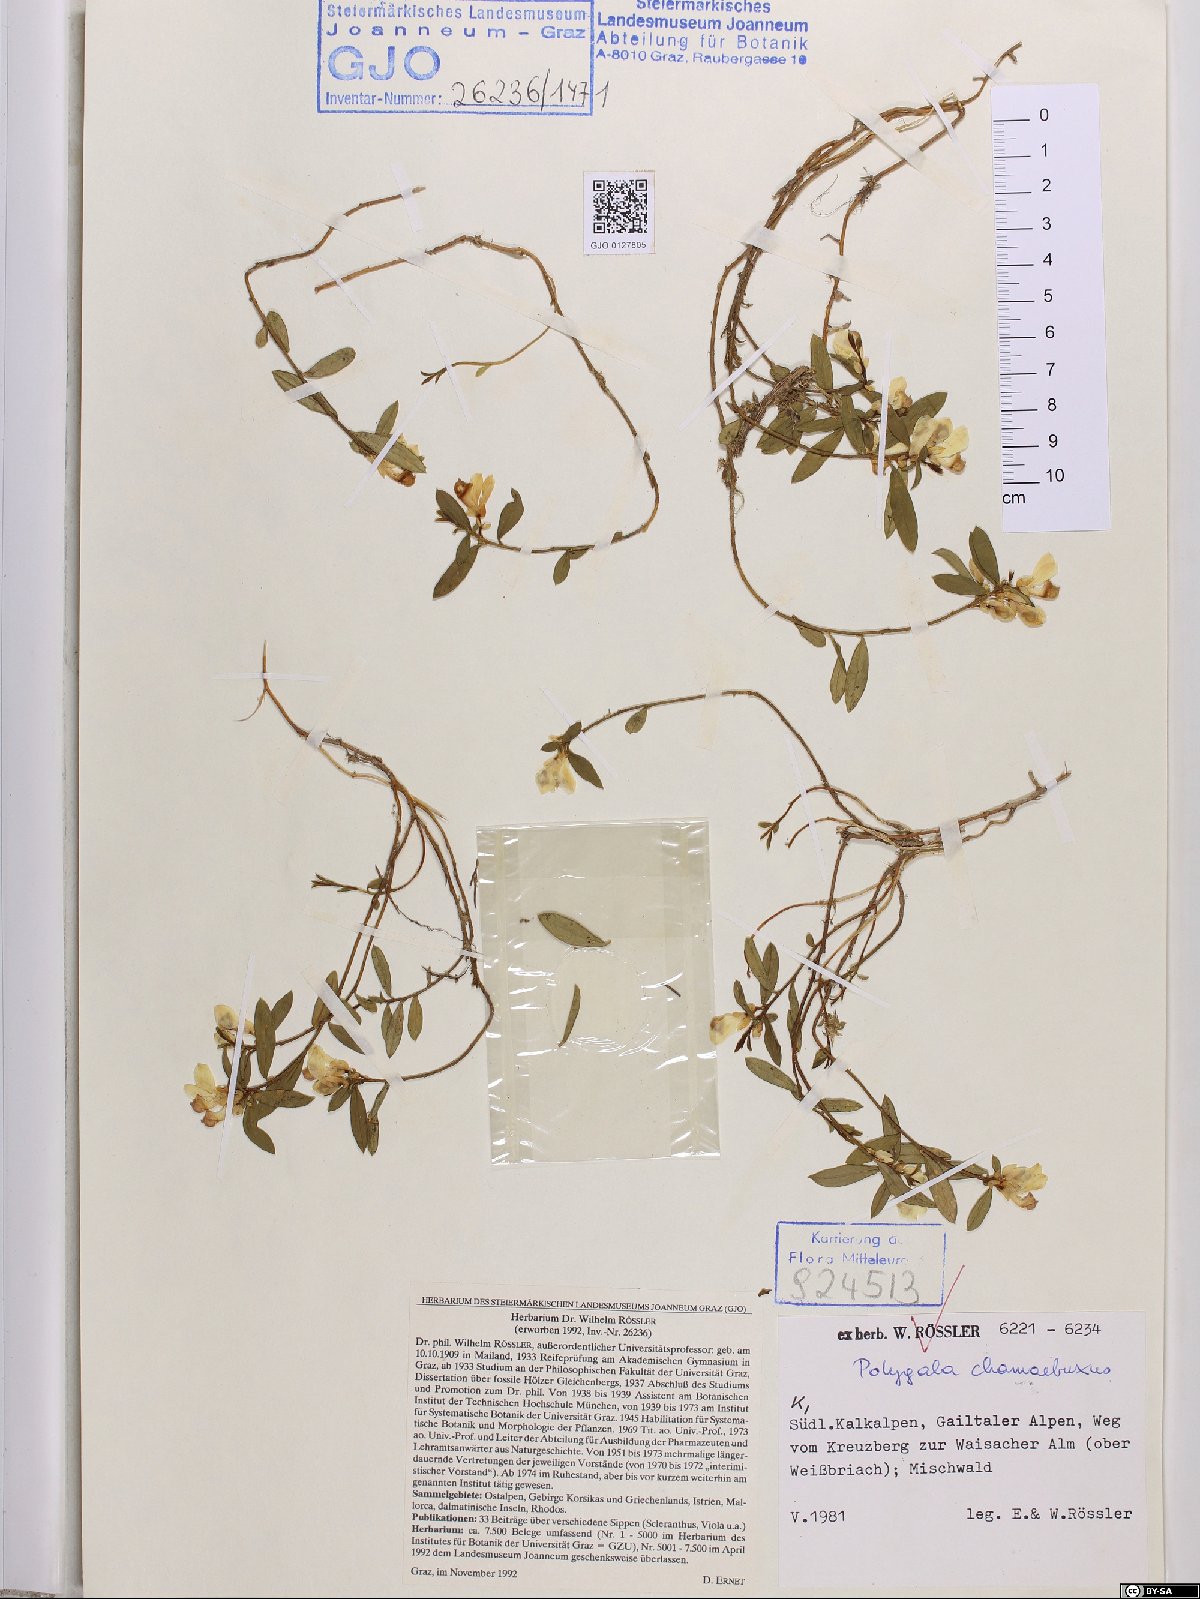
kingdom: Plantae
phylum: Tracheophyta
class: Magnoliopsida
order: Fabales
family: Polygalaceae
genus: Polygaloides
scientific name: Polygaloides chamaebuxus
